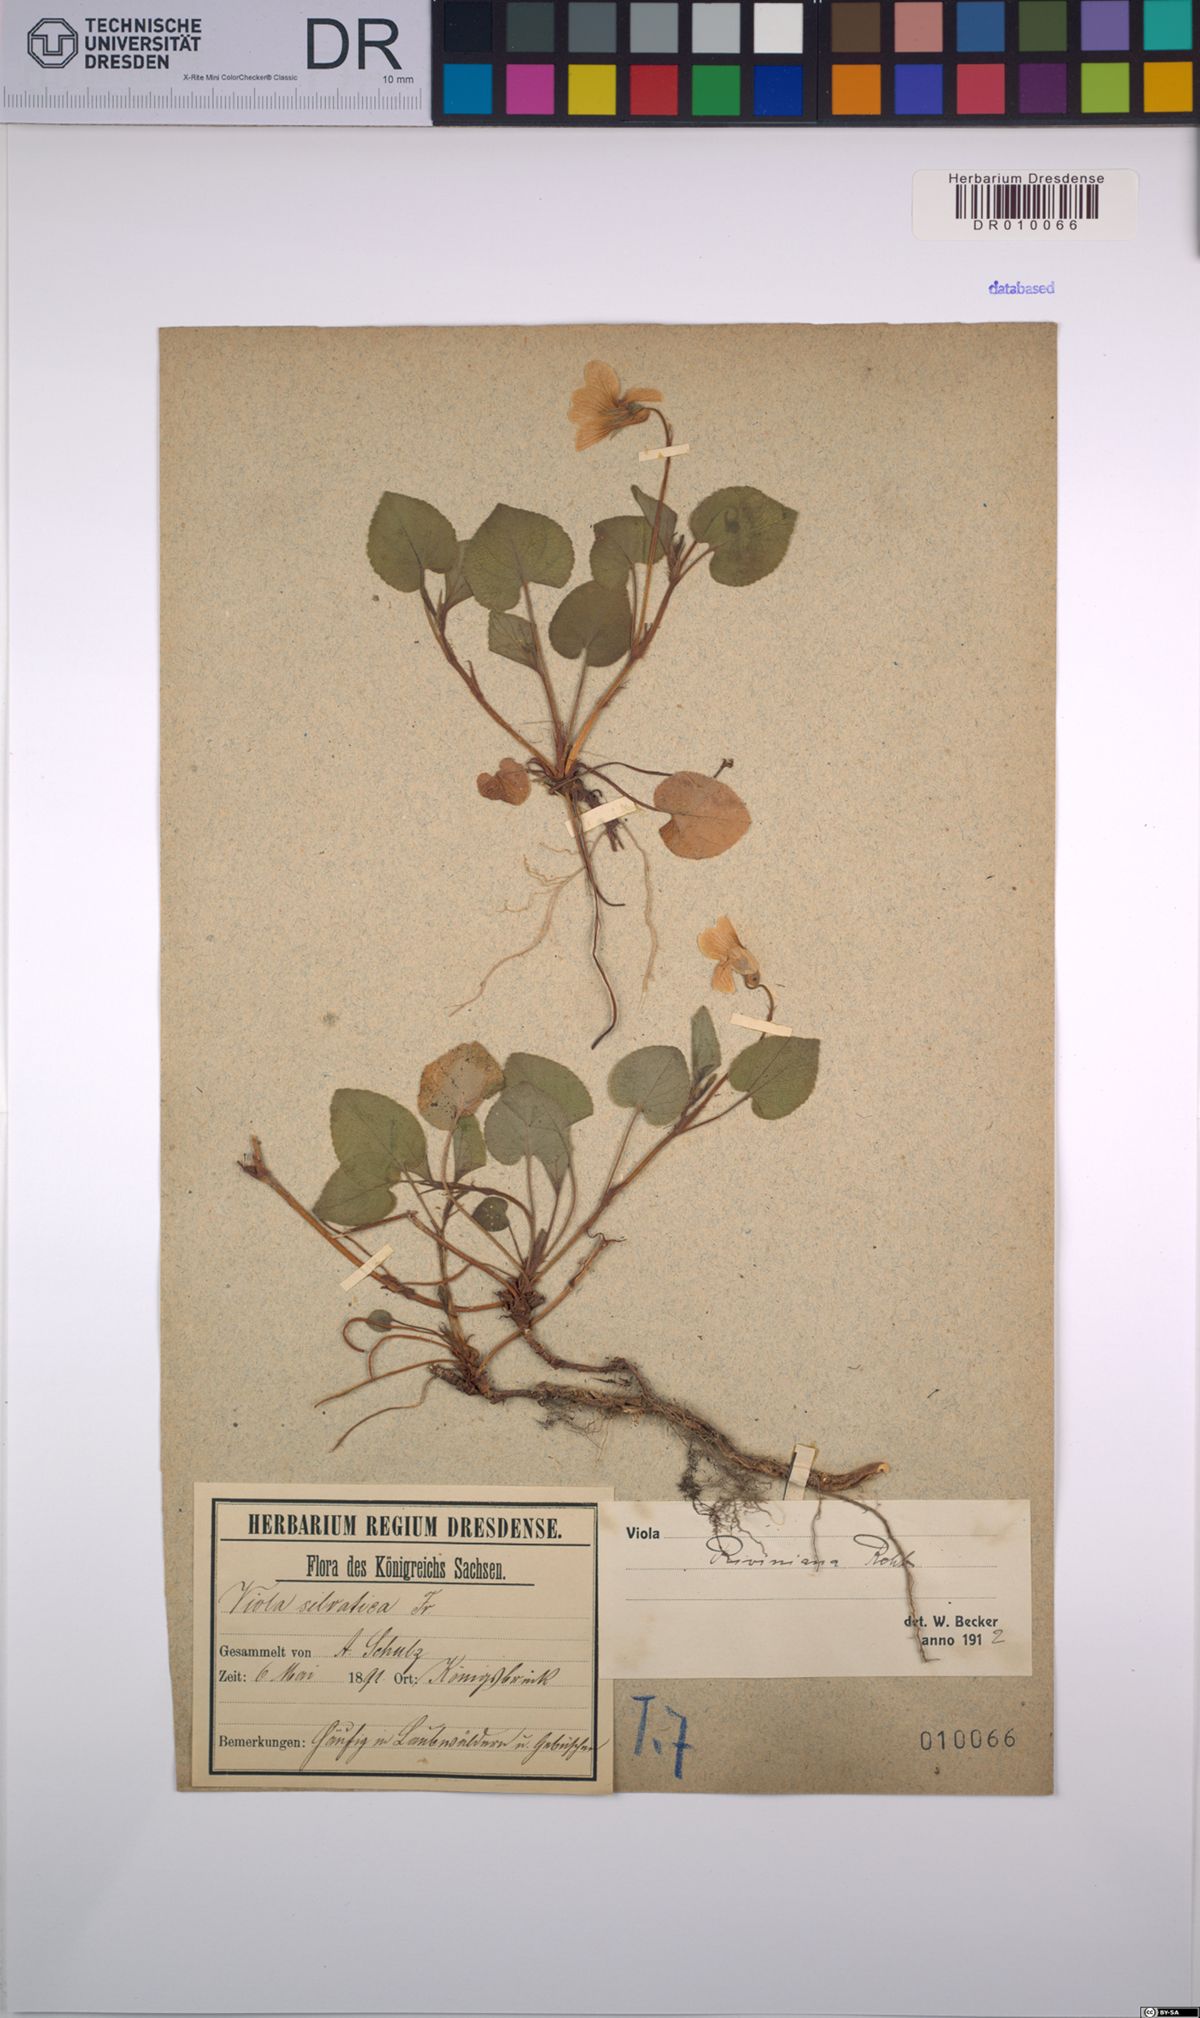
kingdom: Plantae
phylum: Tracheophyta
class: Magnoliopsida
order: Malpighiales
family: Violaceae
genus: Viola
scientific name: Viola riviniana
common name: Common dog-violet
